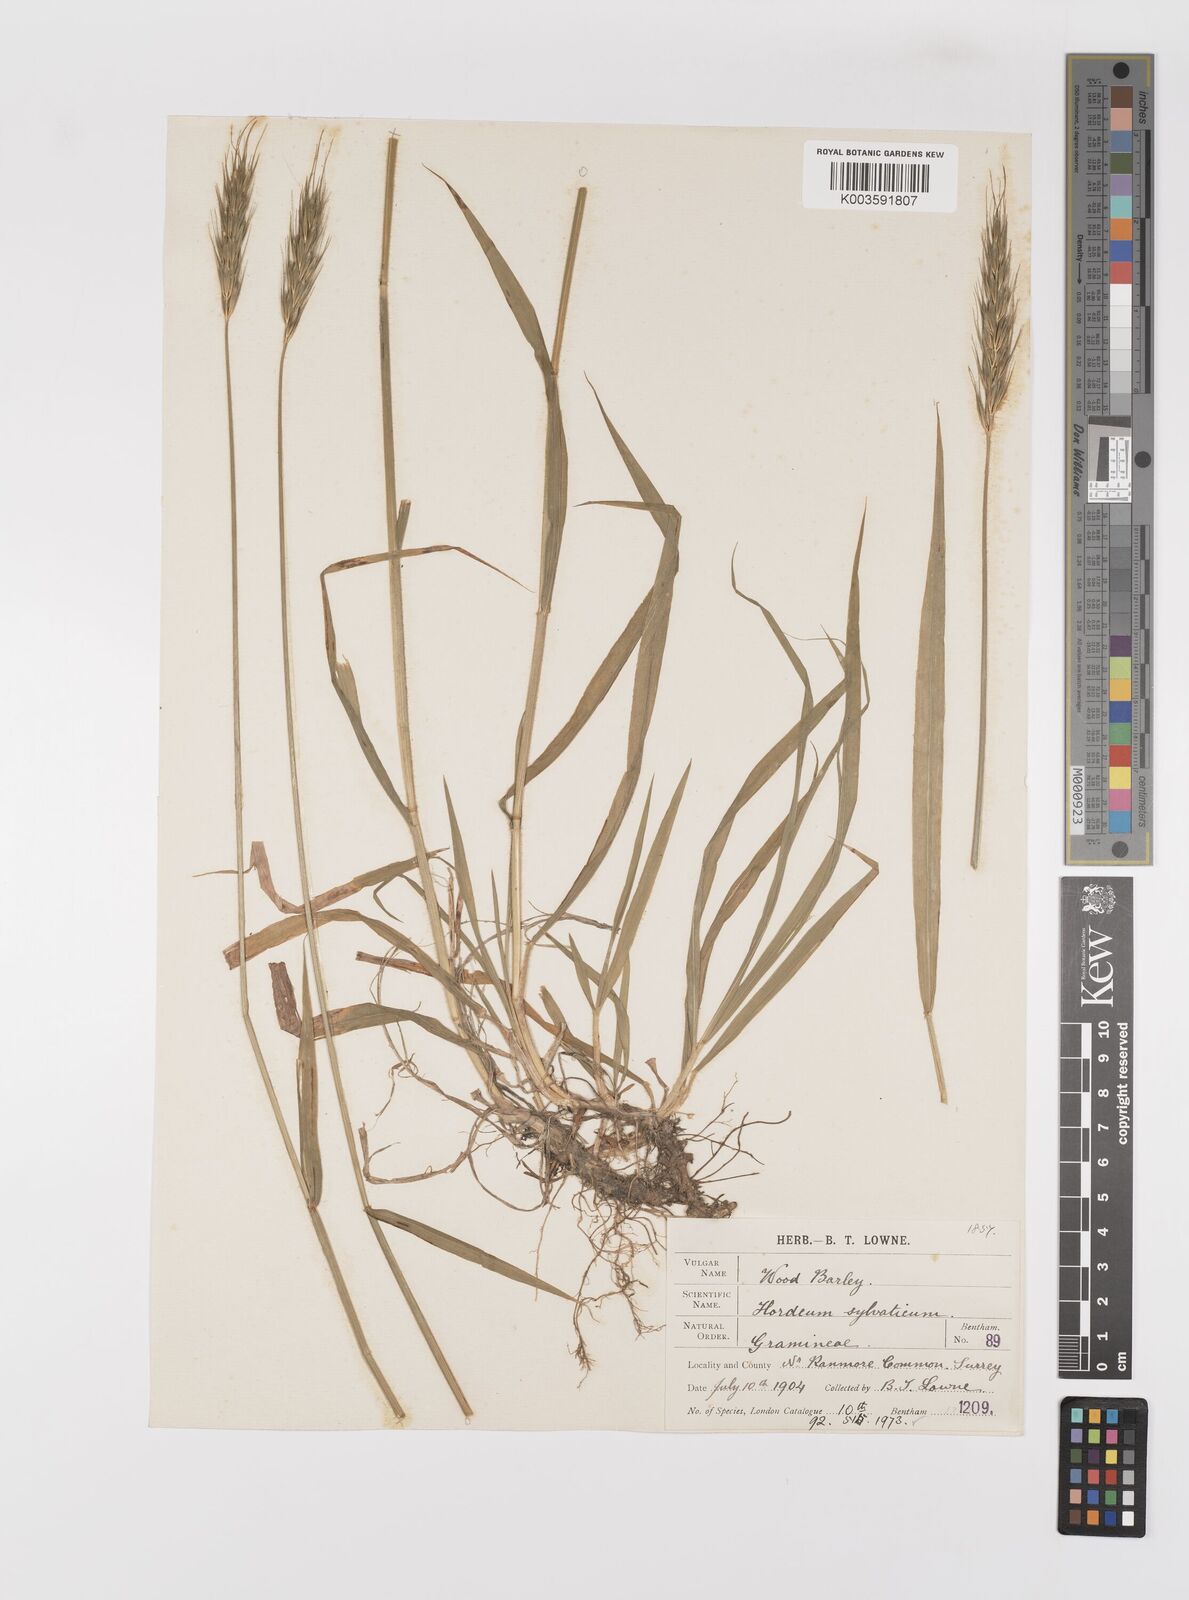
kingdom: Plantae
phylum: Tracheophyta
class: Liliopsida
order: Poales
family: Poaceae
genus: Hordelymus
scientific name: Hordelymus europaeus
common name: Wood-barley
